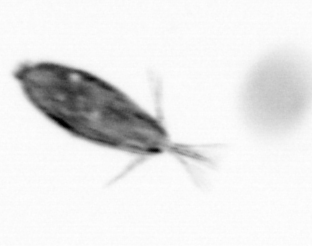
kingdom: Animalia
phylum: Arthropoda
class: Maxillopoda
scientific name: Maxillopoda
